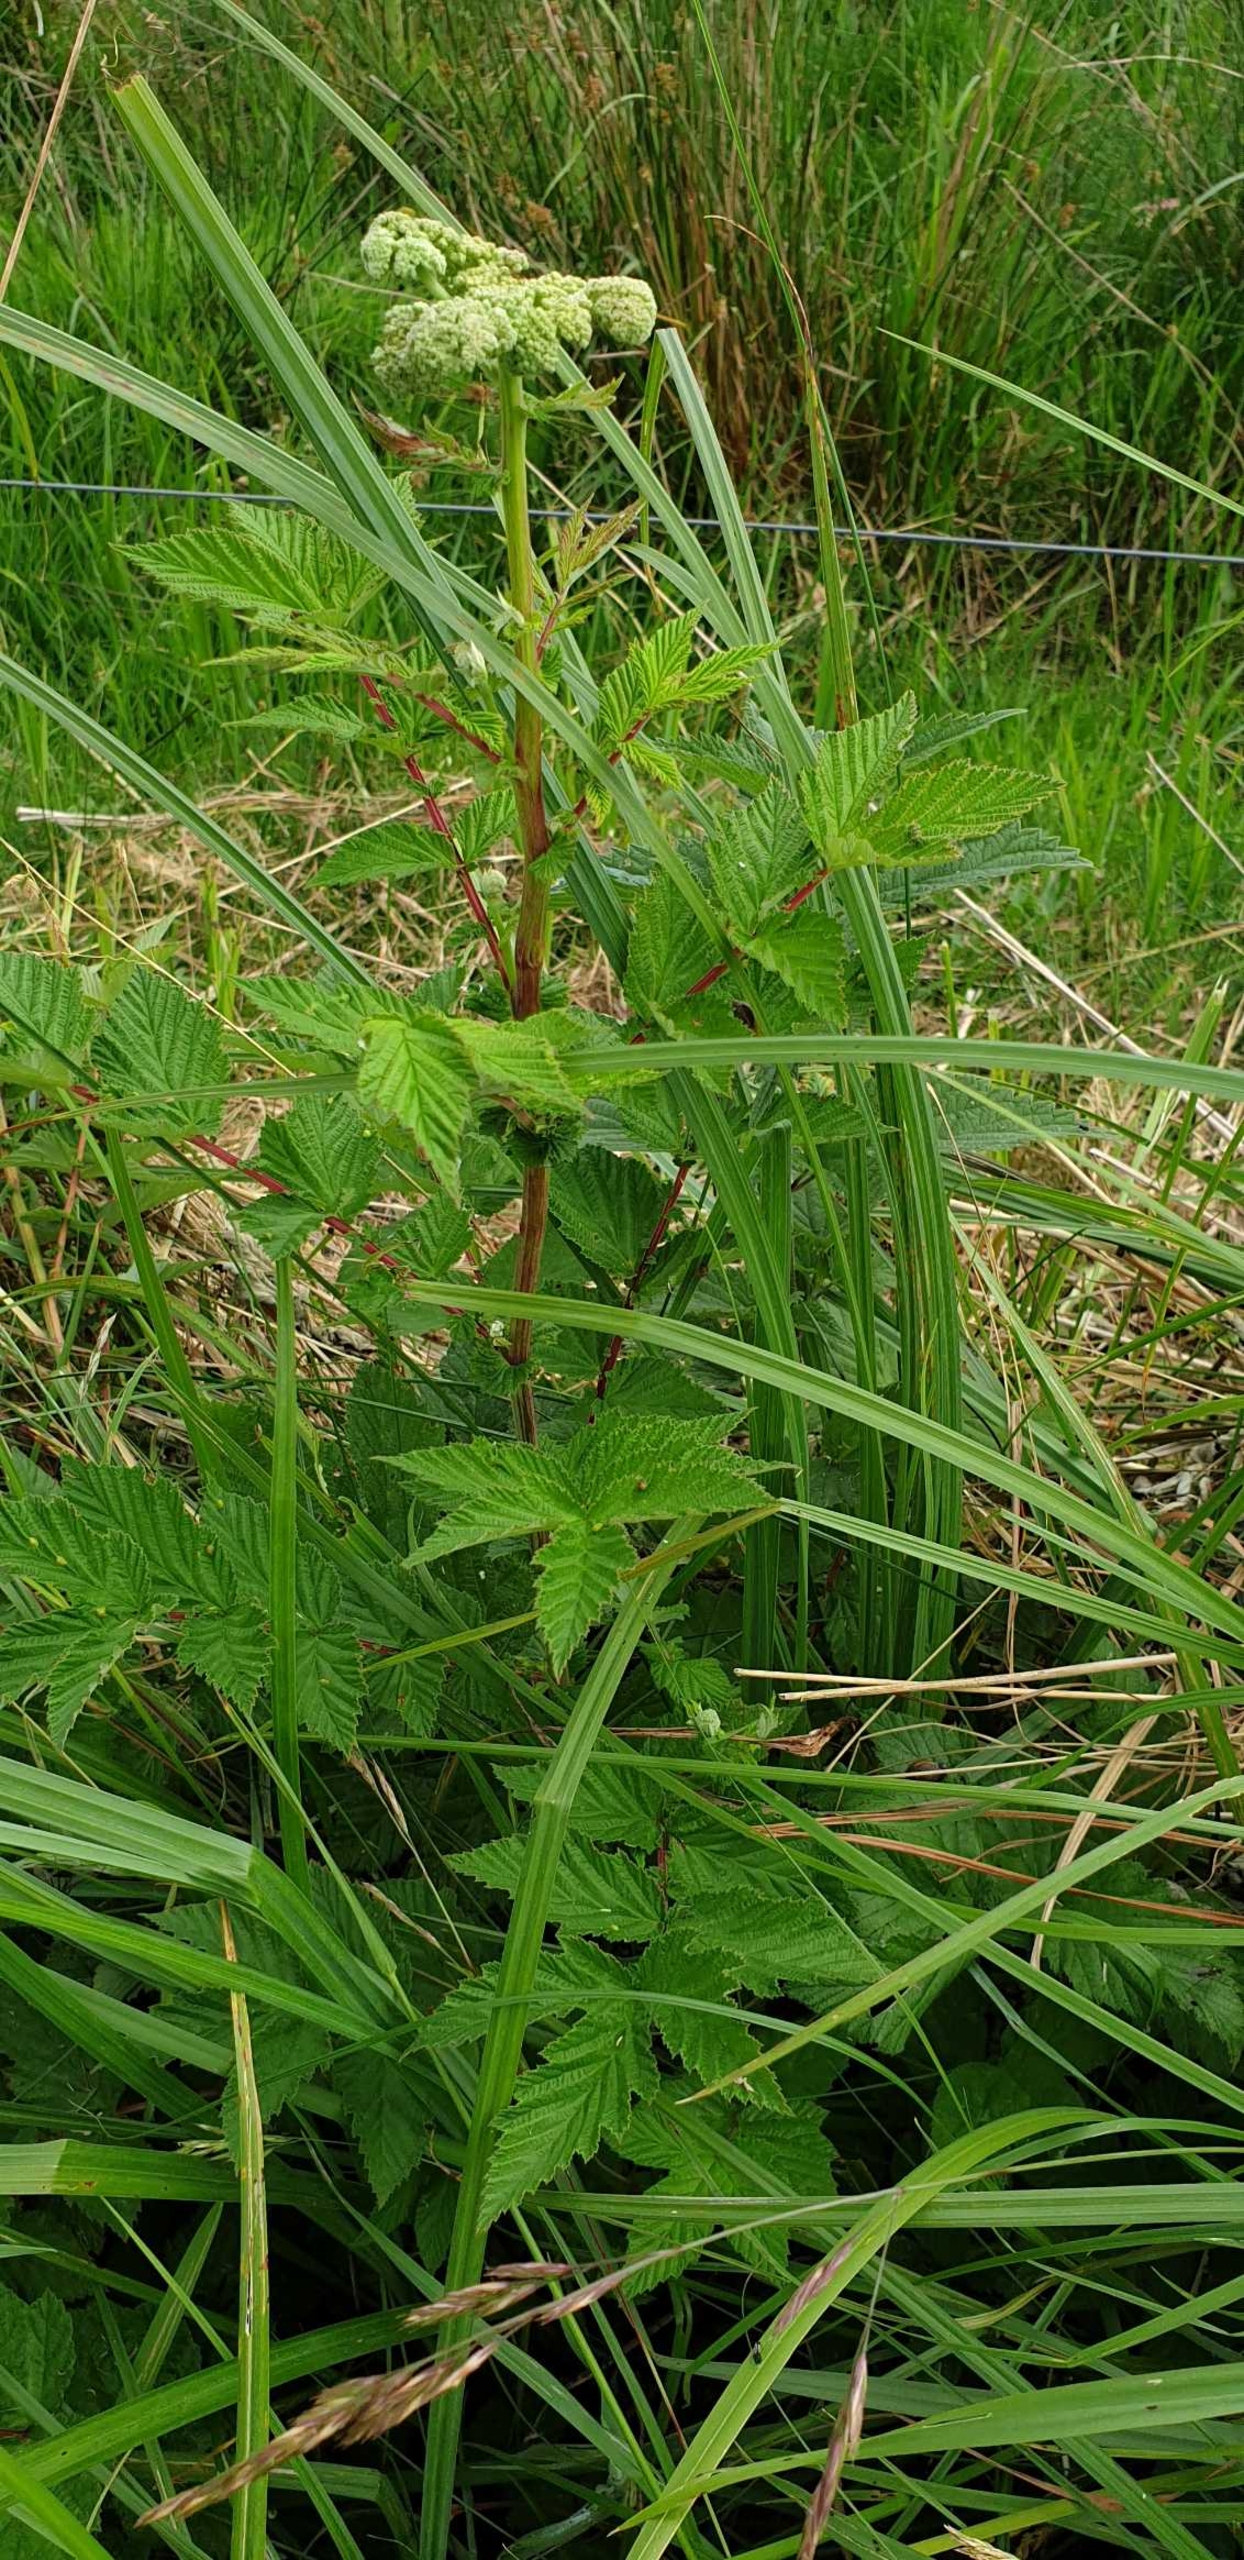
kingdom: Plantae
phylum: Tracheophyta
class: Magnoliopsida
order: Rosales
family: Rosaceae
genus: Filipendula
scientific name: Filipendula ulmaria
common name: Almindelig mjødurt
